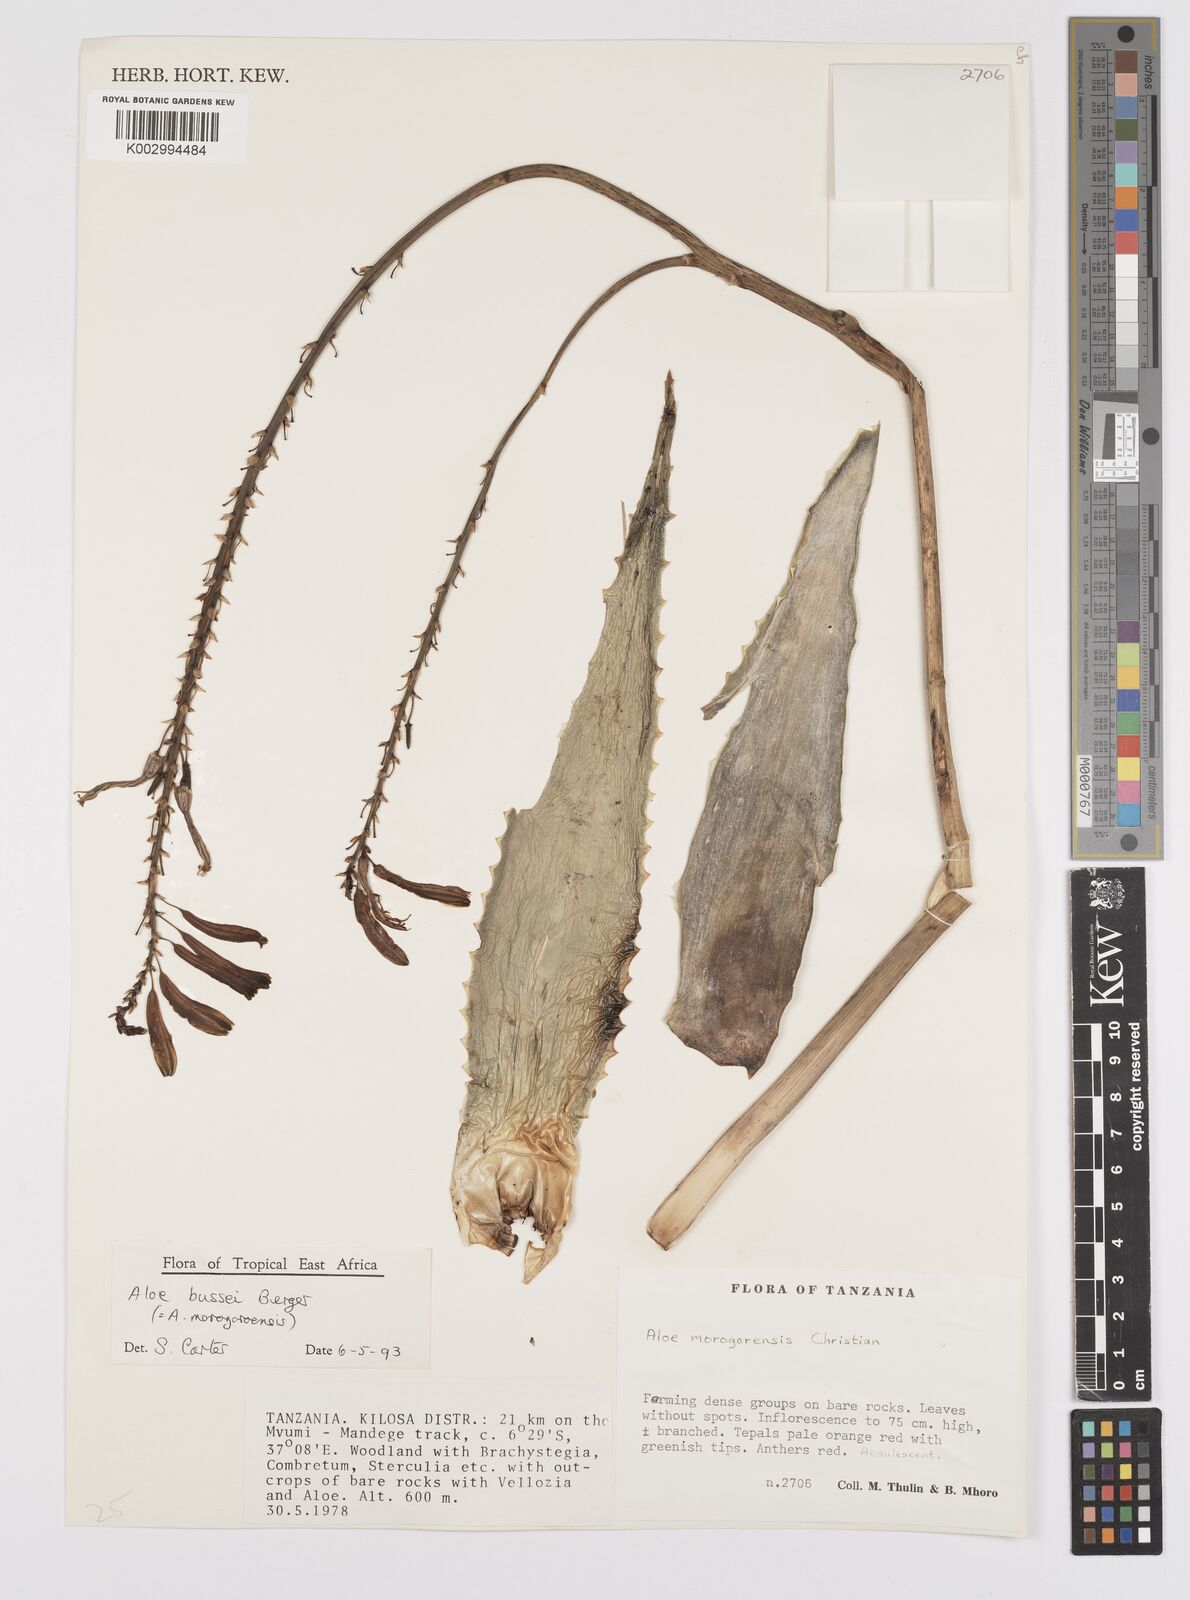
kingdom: Plantae
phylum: Tracheophyta
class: Liliopsida
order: Asparagales
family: Asphodelaceae
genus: Aloe
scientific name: Aloe bussei
